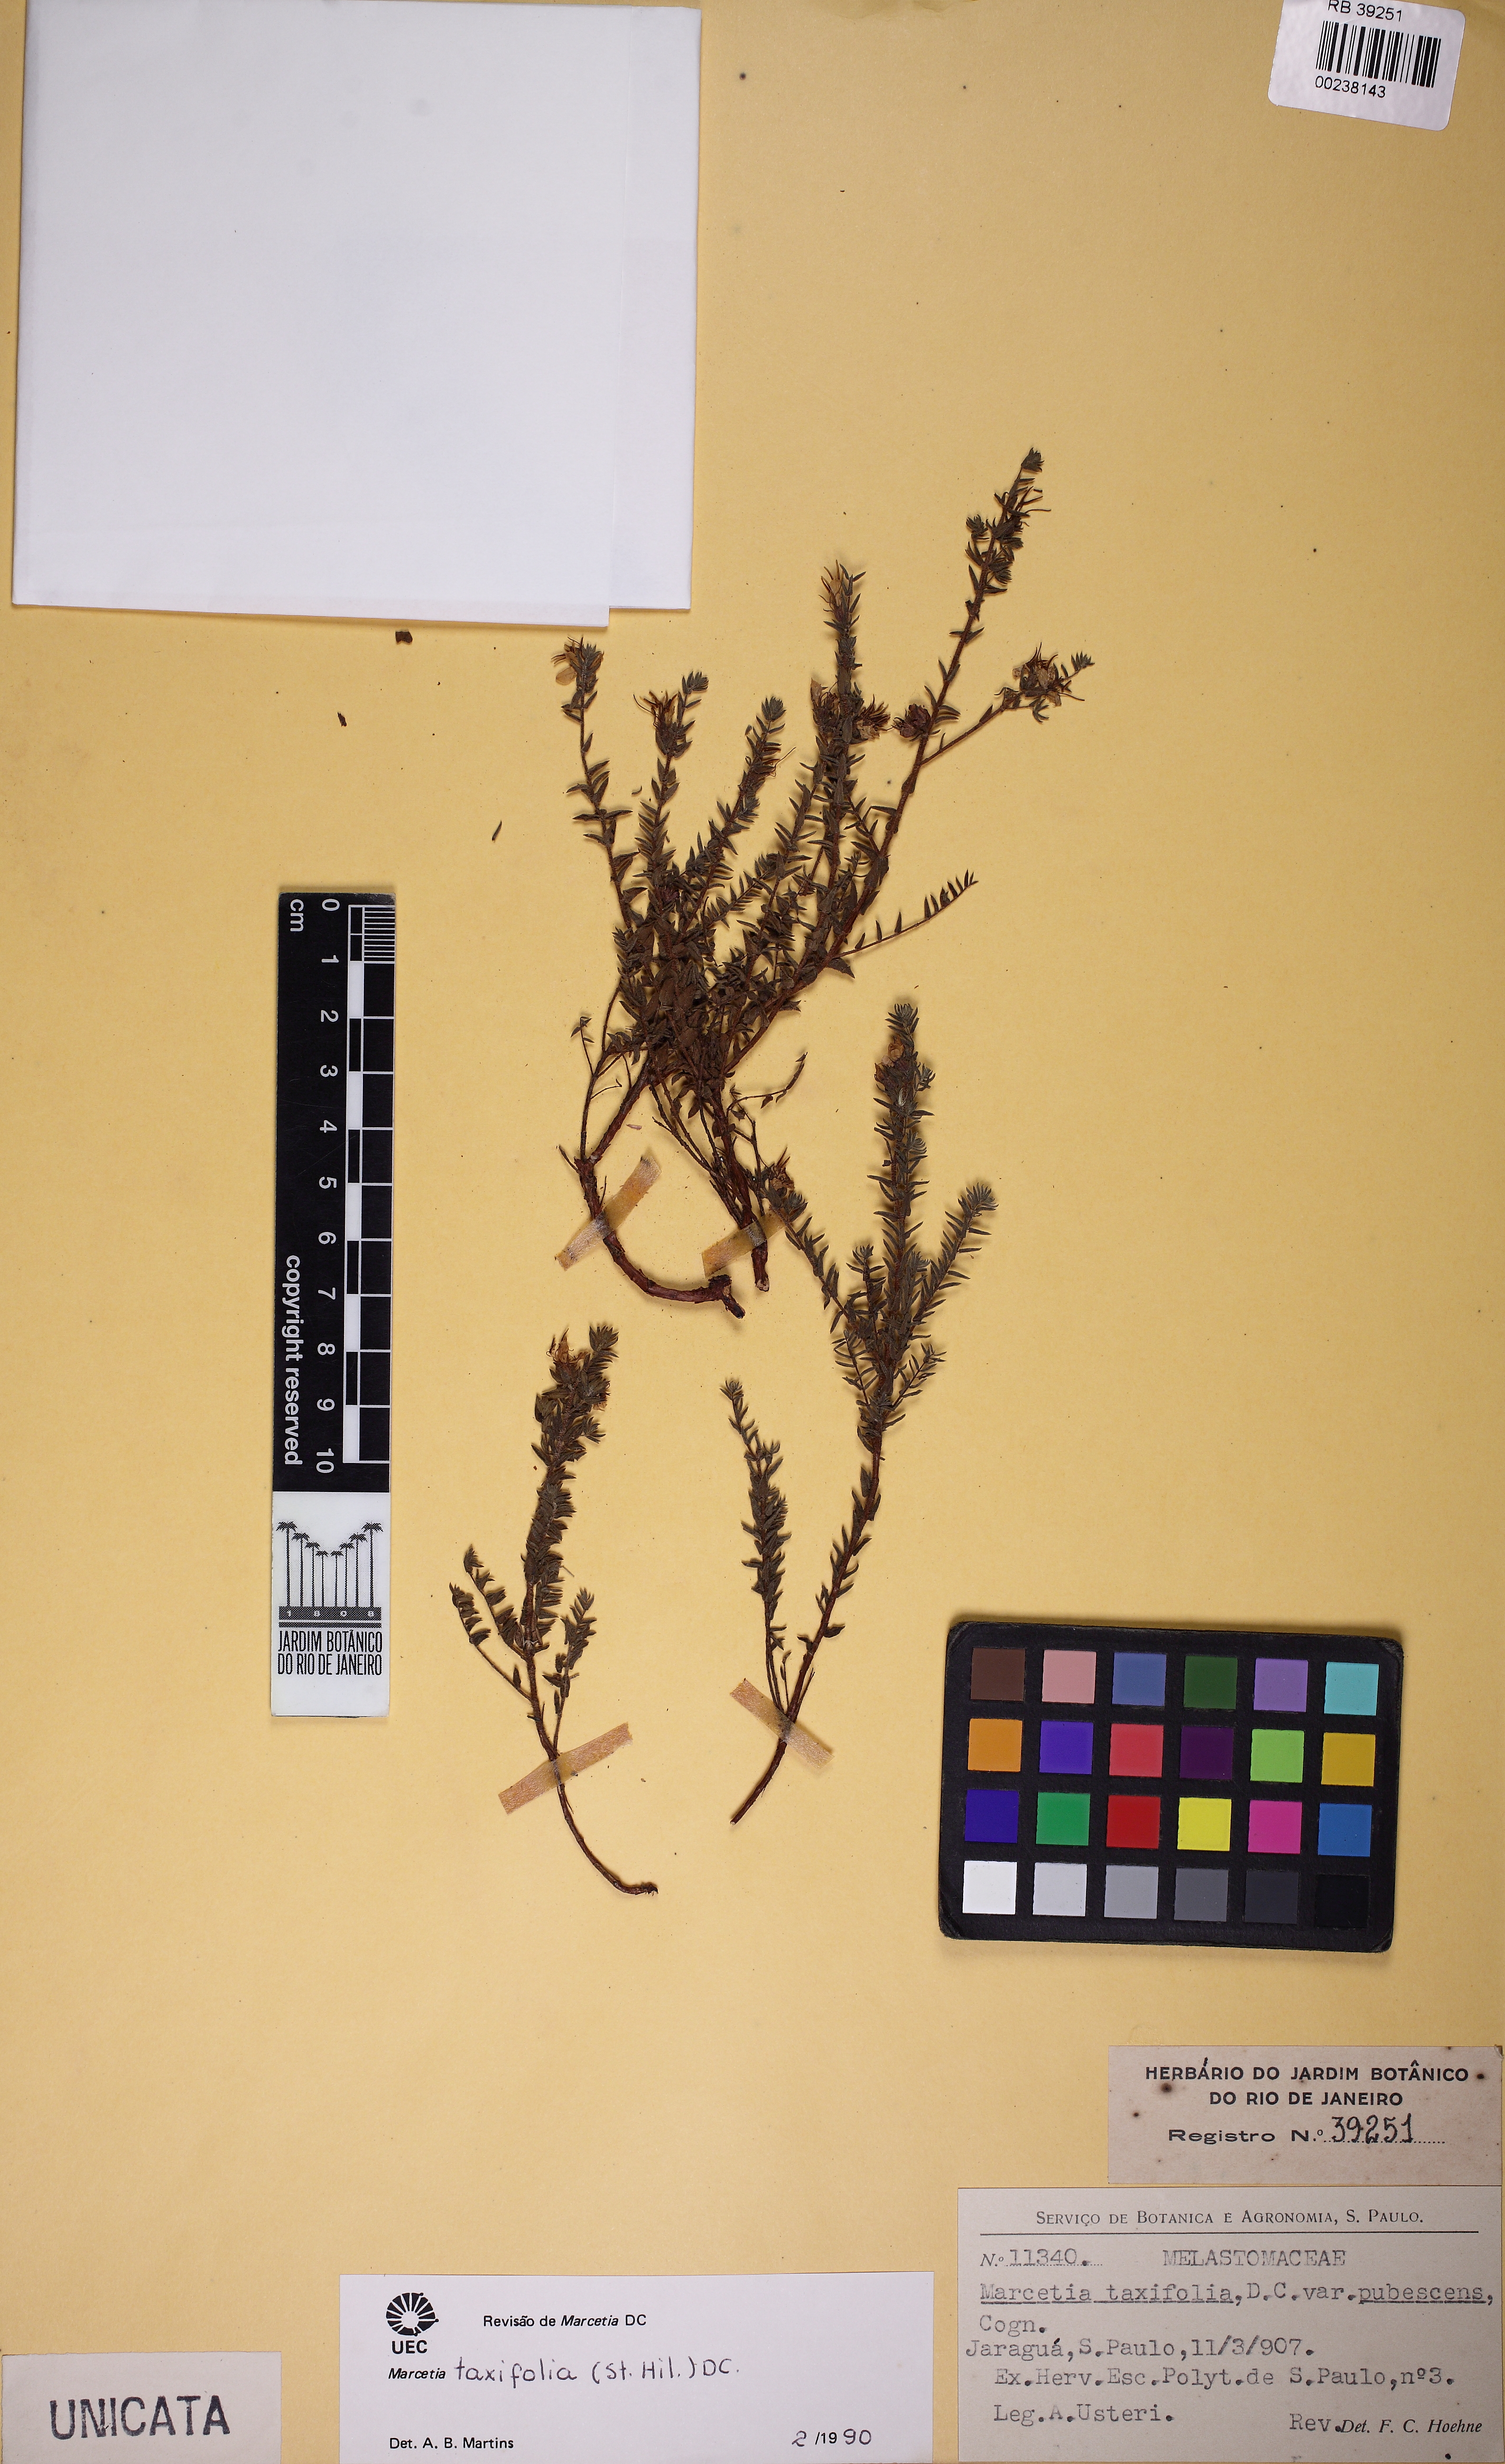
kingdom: Plantae
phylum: Tracheophyta
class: Magnoliopsida
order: Myrtales
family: Melastomataceae
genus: Marcetia
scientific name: Marcetia taxifolia
